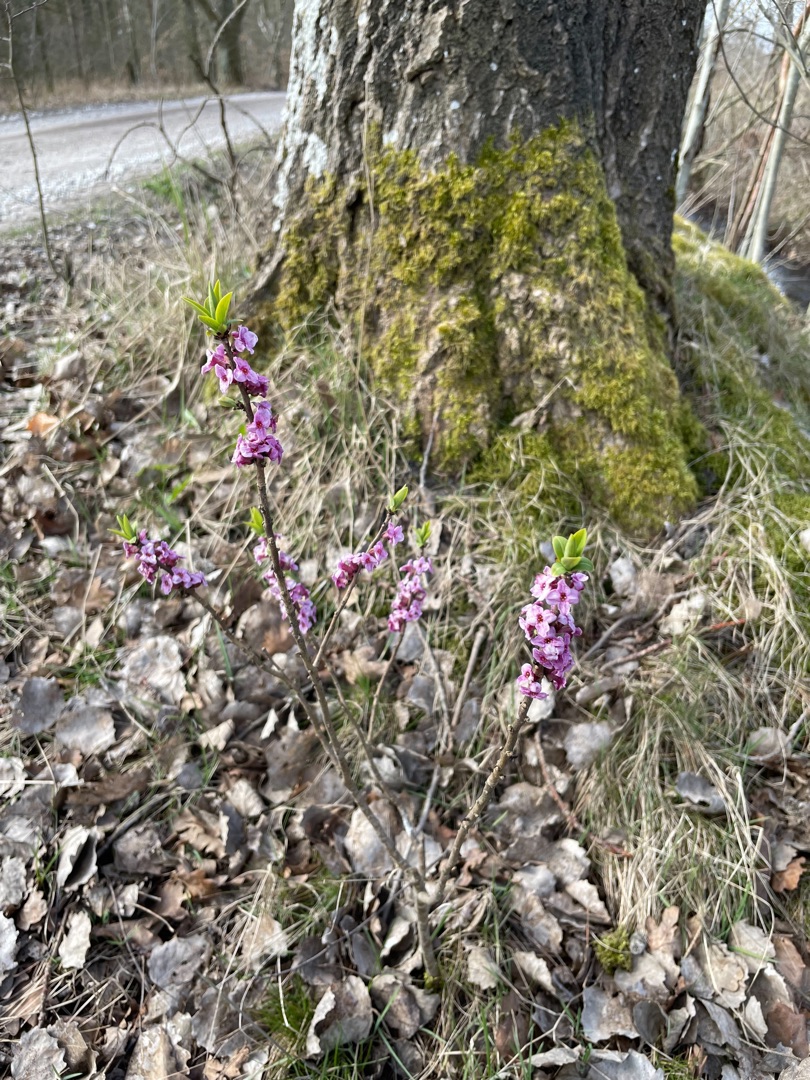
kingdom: Plantae
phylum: Tracheophyta
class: Magnoliopsida
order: Malvales
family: Thymelaeaceae
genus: Daphne
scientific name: Daphne mezereum
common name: Pebertræ
